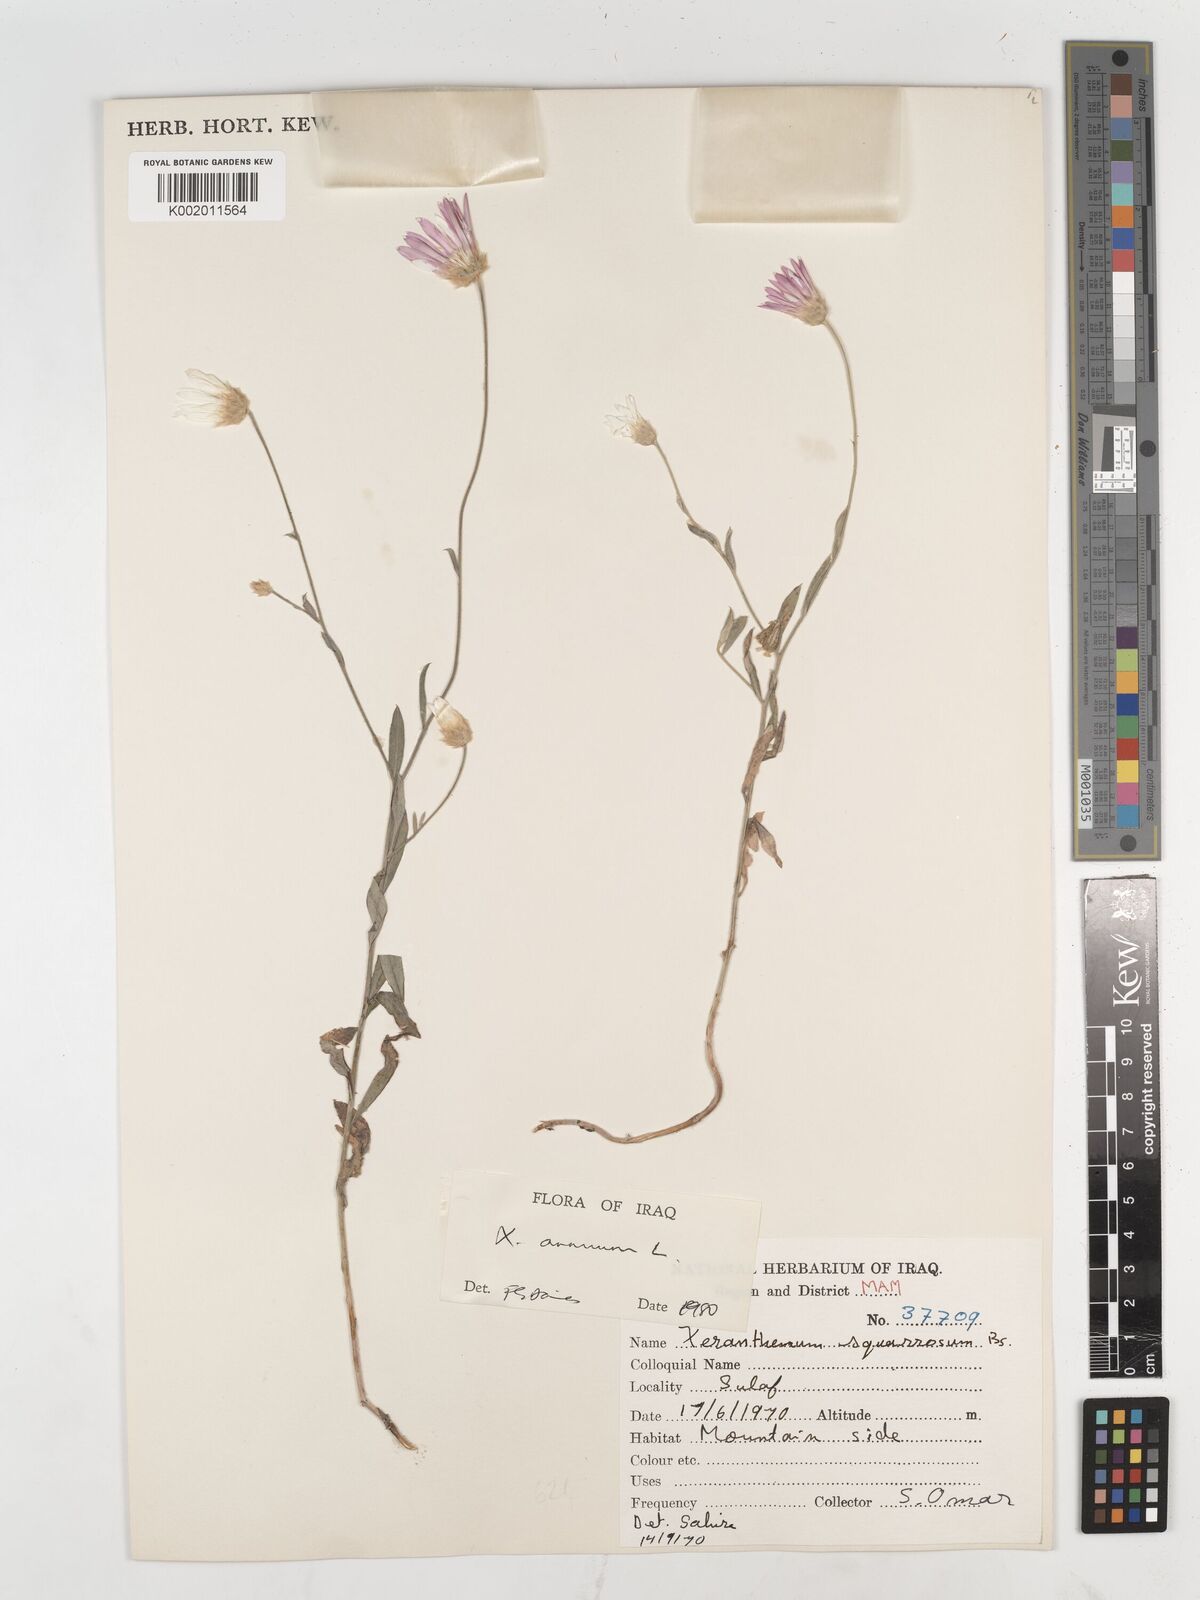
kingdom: Plantae
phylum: Tracheophyta
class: Magnoliopsida
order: Asterales
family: Asteraceae
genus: Xeranthemum
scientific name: Xeranthemum annuum
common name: Immortelle
